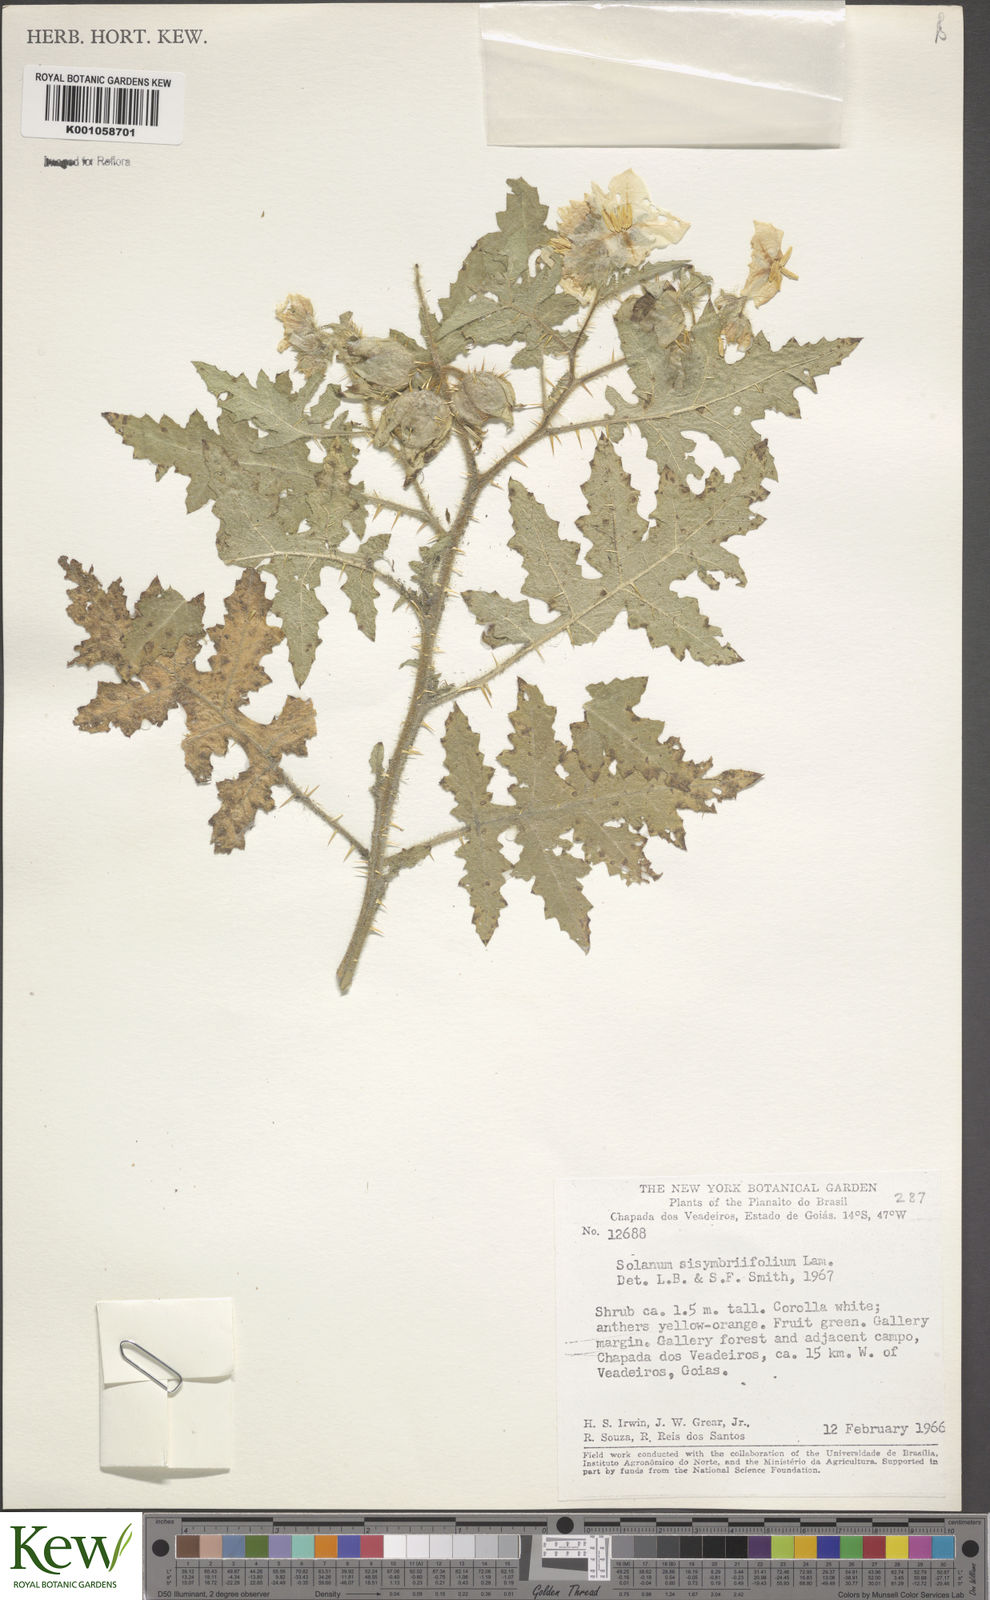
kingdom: Plantae
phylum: Tracheophyta
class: Magnoliopsida
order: Solanales
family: Solanaceae
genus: Solanum
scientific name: Solanum sisymbriifolium
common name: Red buffalo-bur
